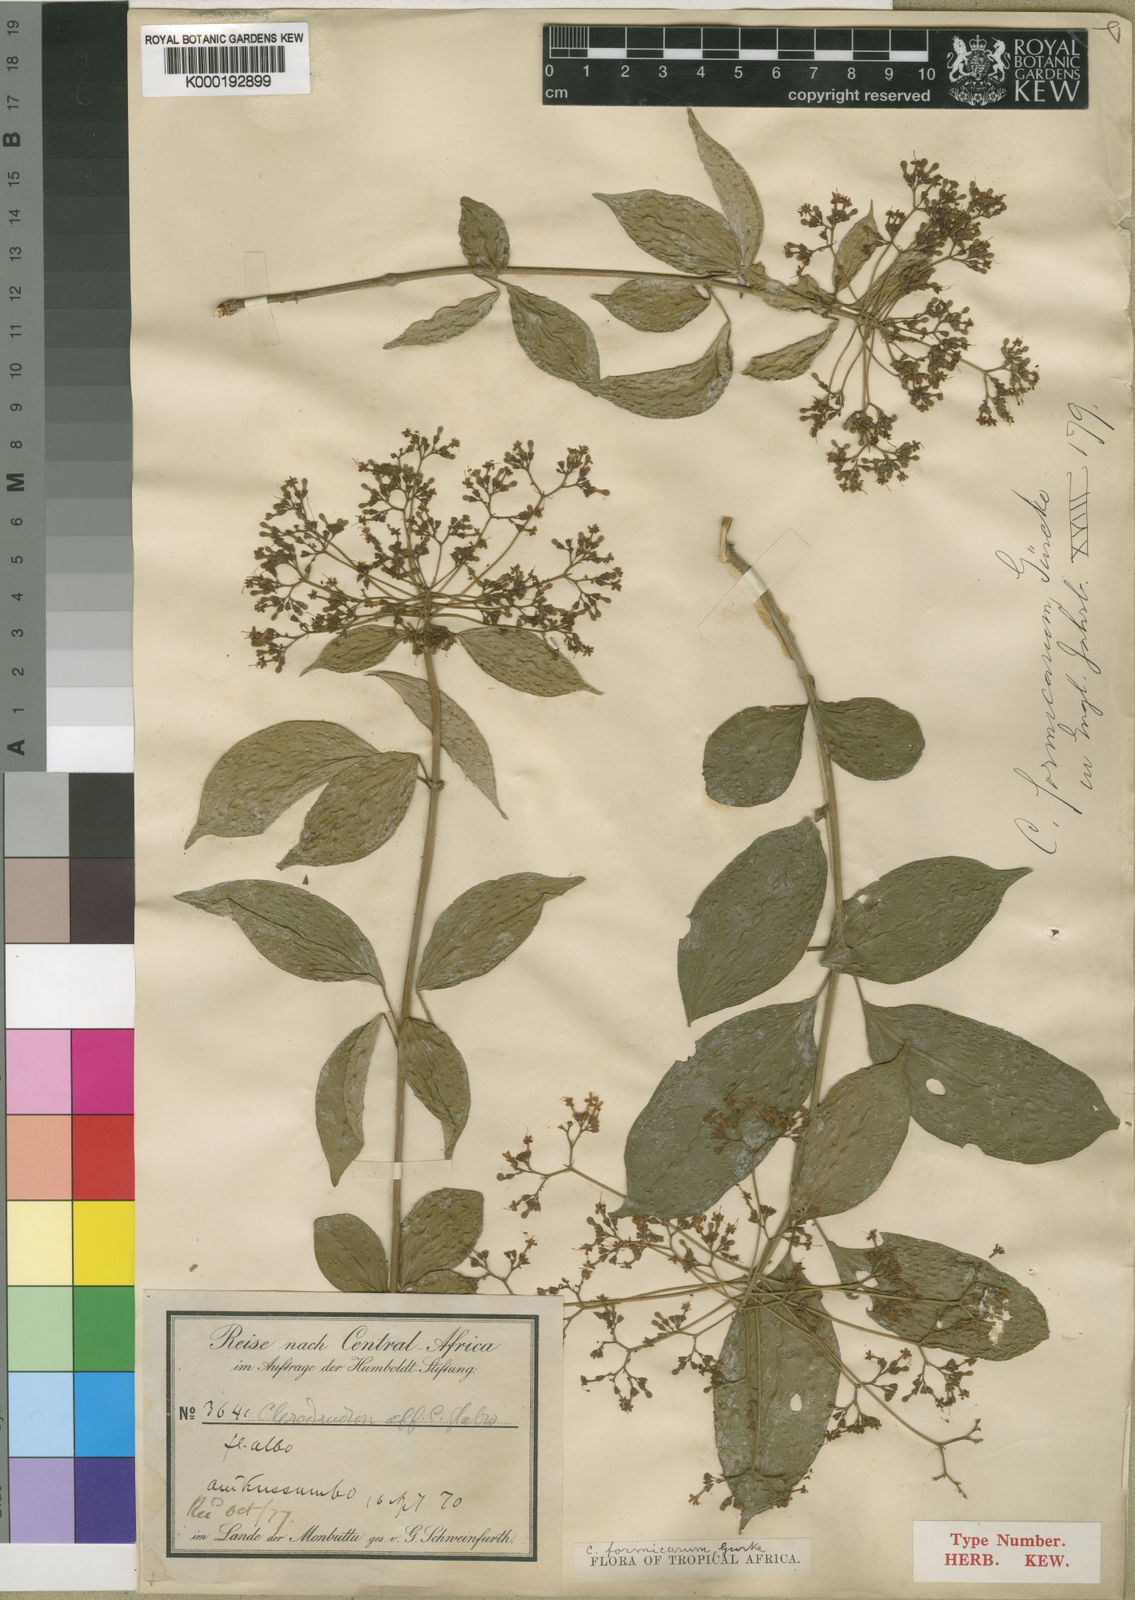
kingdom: Plantae
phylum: Tracheophyta
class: Magnoliopsida
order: Lamiales
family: Lamiaceae
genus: Clerodendrum
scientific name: Clerodendrum formicarum
